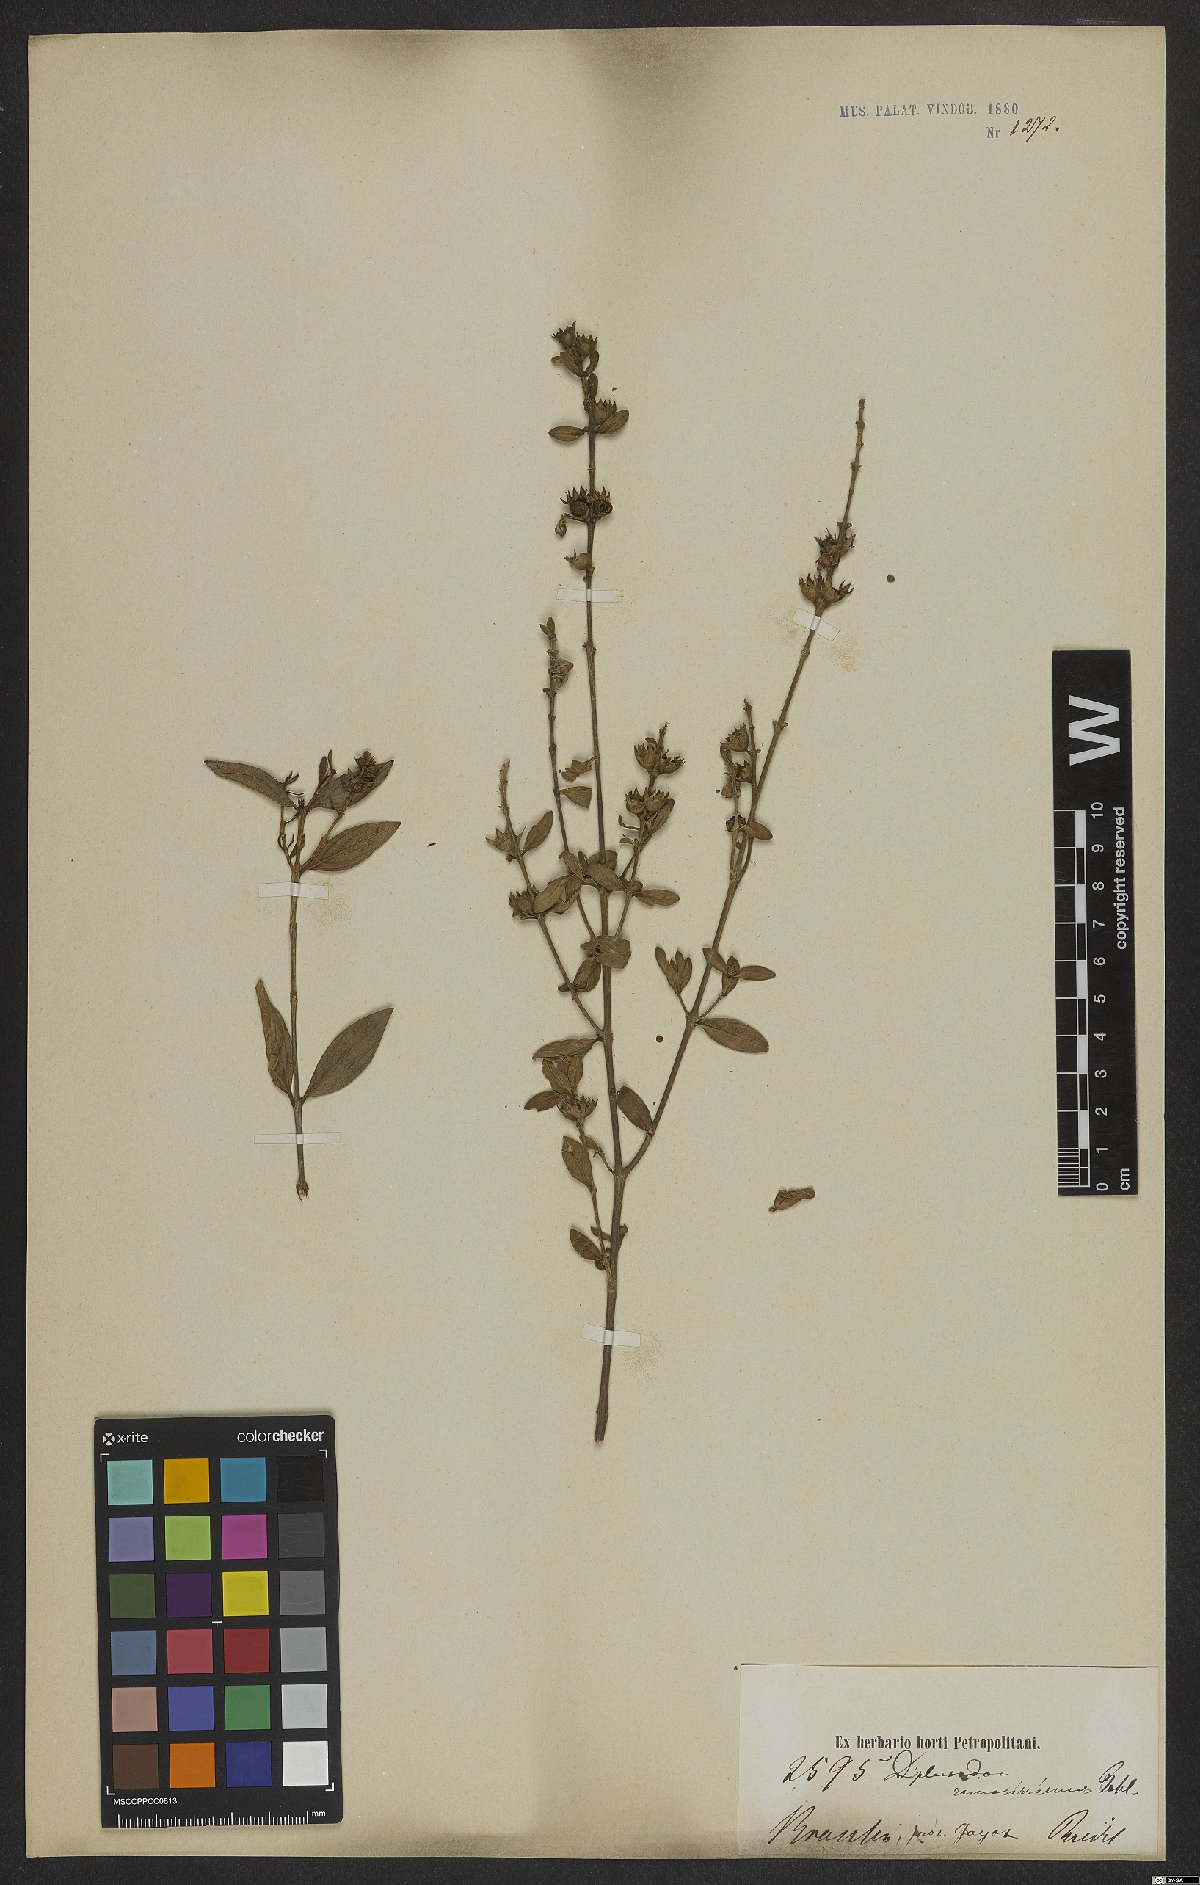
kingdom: Plantae
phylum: Tracheophyta
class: Magnoliopsida
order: Myrtales
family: Lythraceae
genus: Diplusodon
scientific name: Diplusodon ramosissimus
